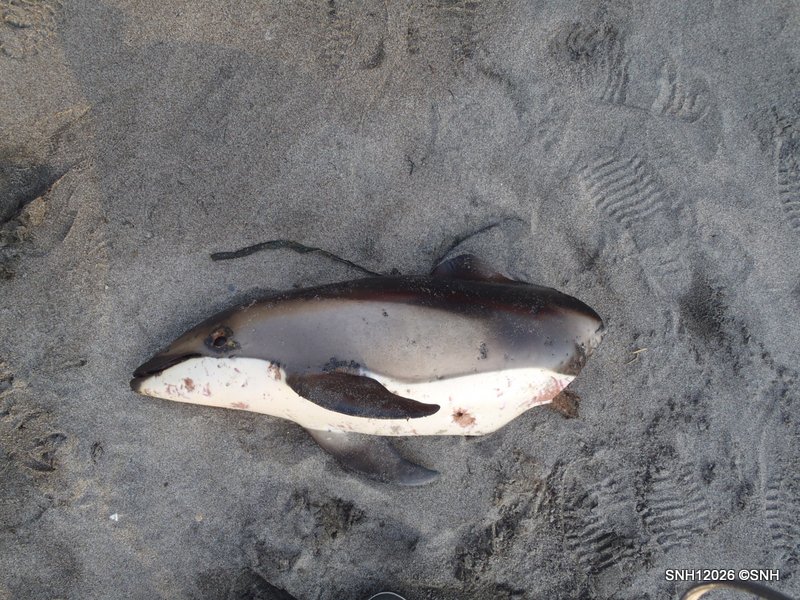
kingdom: Animalia
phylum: Chordata
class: Mammalia
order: Cetacea
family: Delphinidae
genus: Lagenorhynchus
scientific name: Lagenorhynchus obliquidens
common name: Pacific white-sided dolphin
